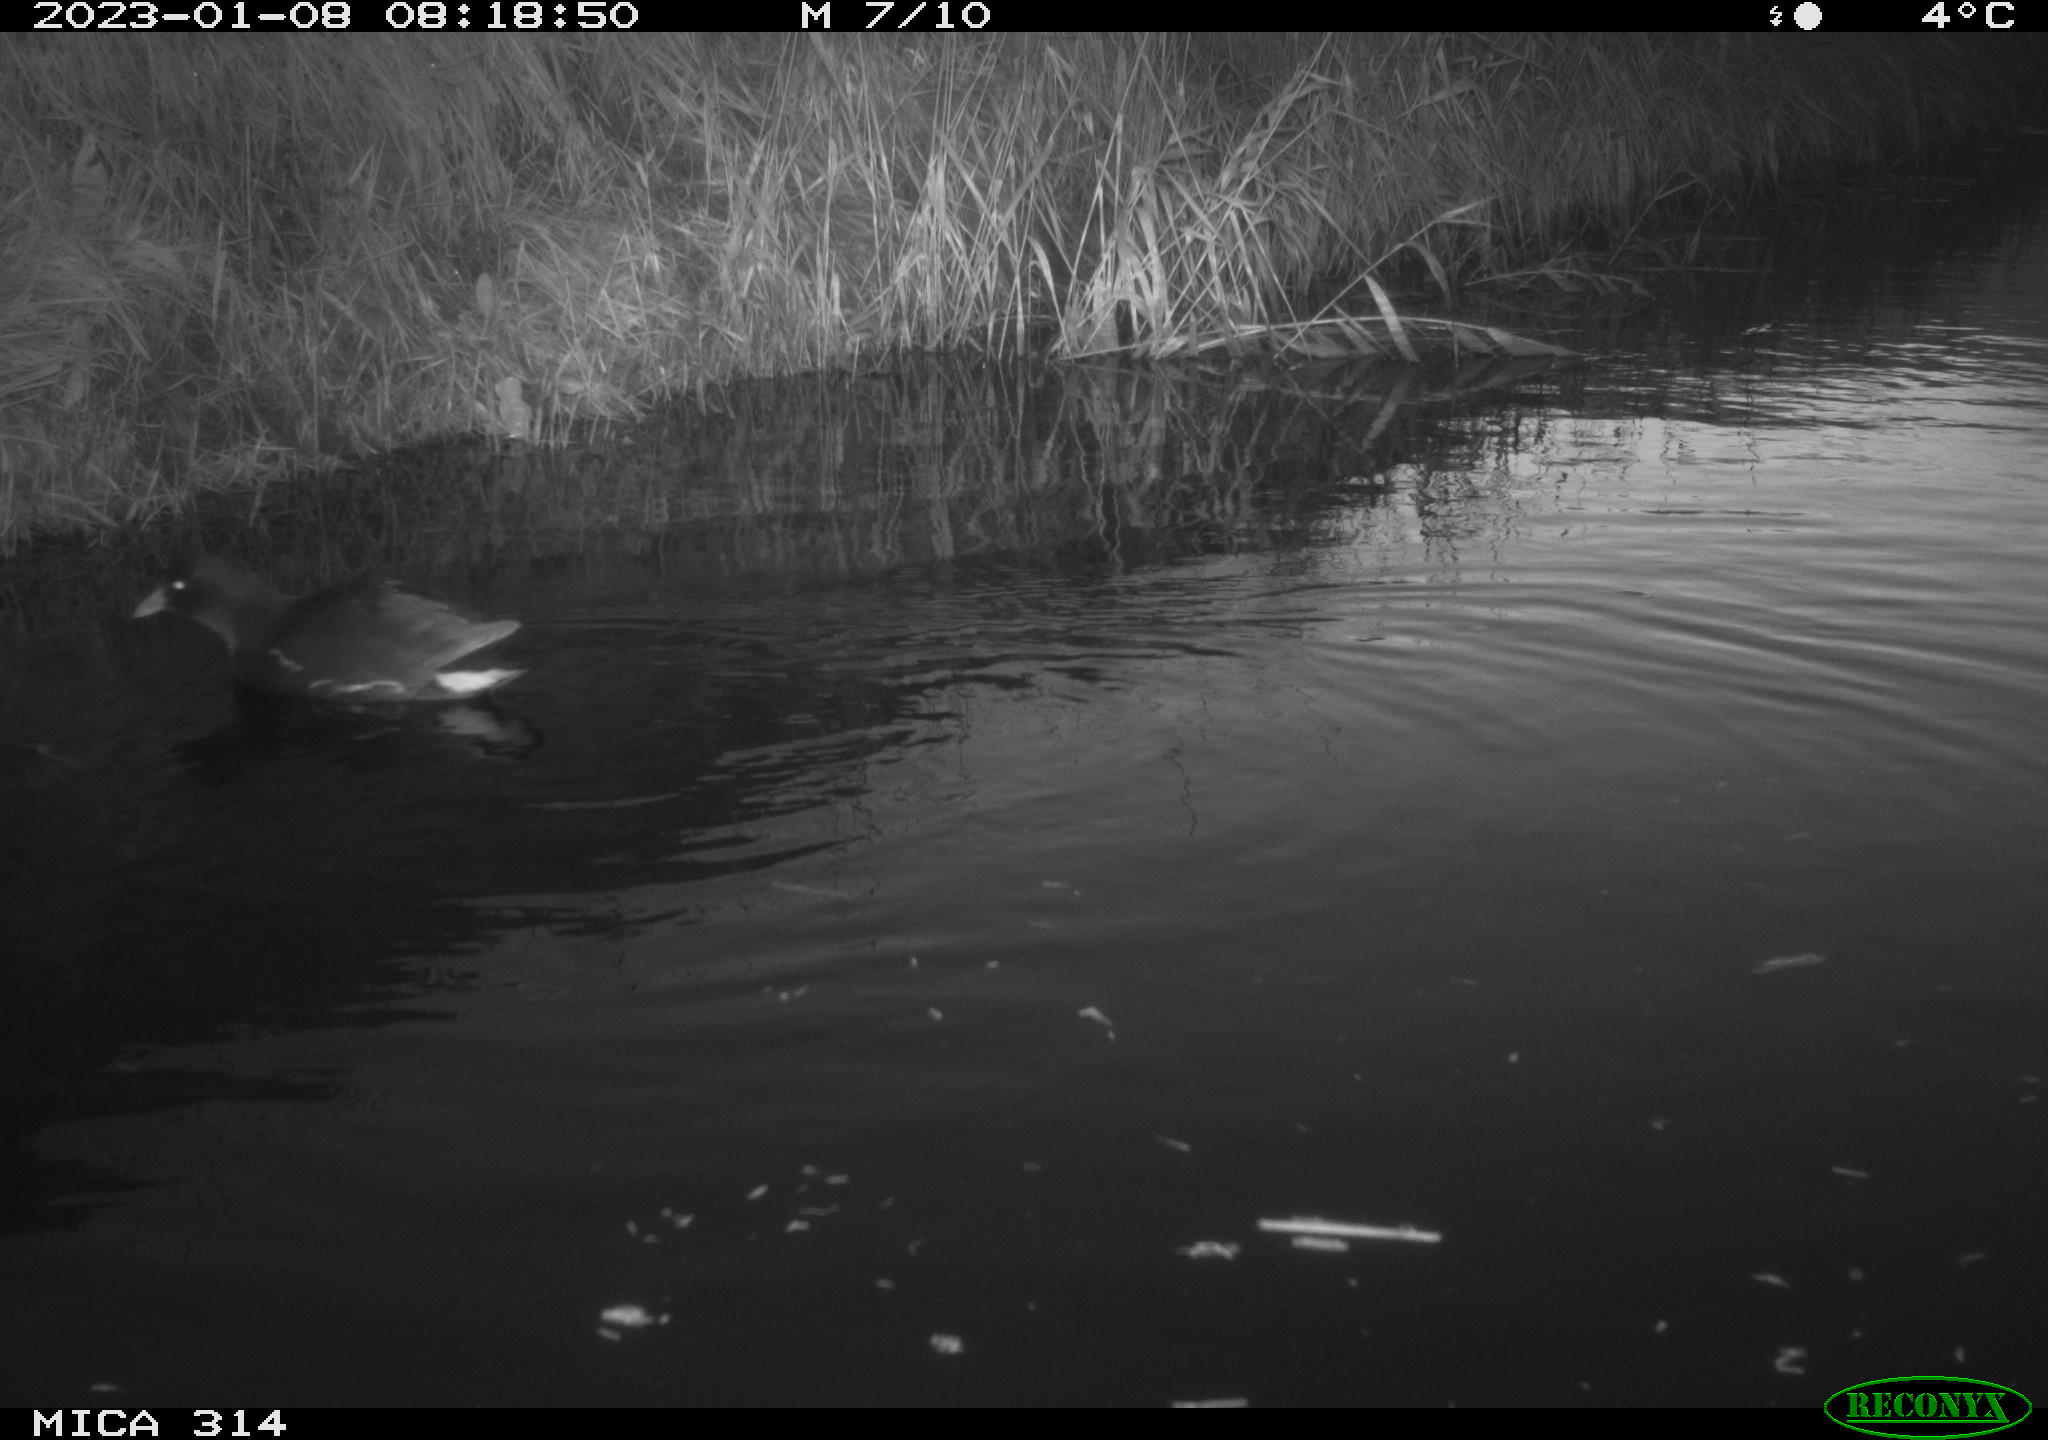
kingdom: Animalia
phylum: Chordata
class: Aves
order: Gruiformes
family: Rallidae
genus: Gallinula
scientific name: Gallinula chloropus
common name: Common moorhen
